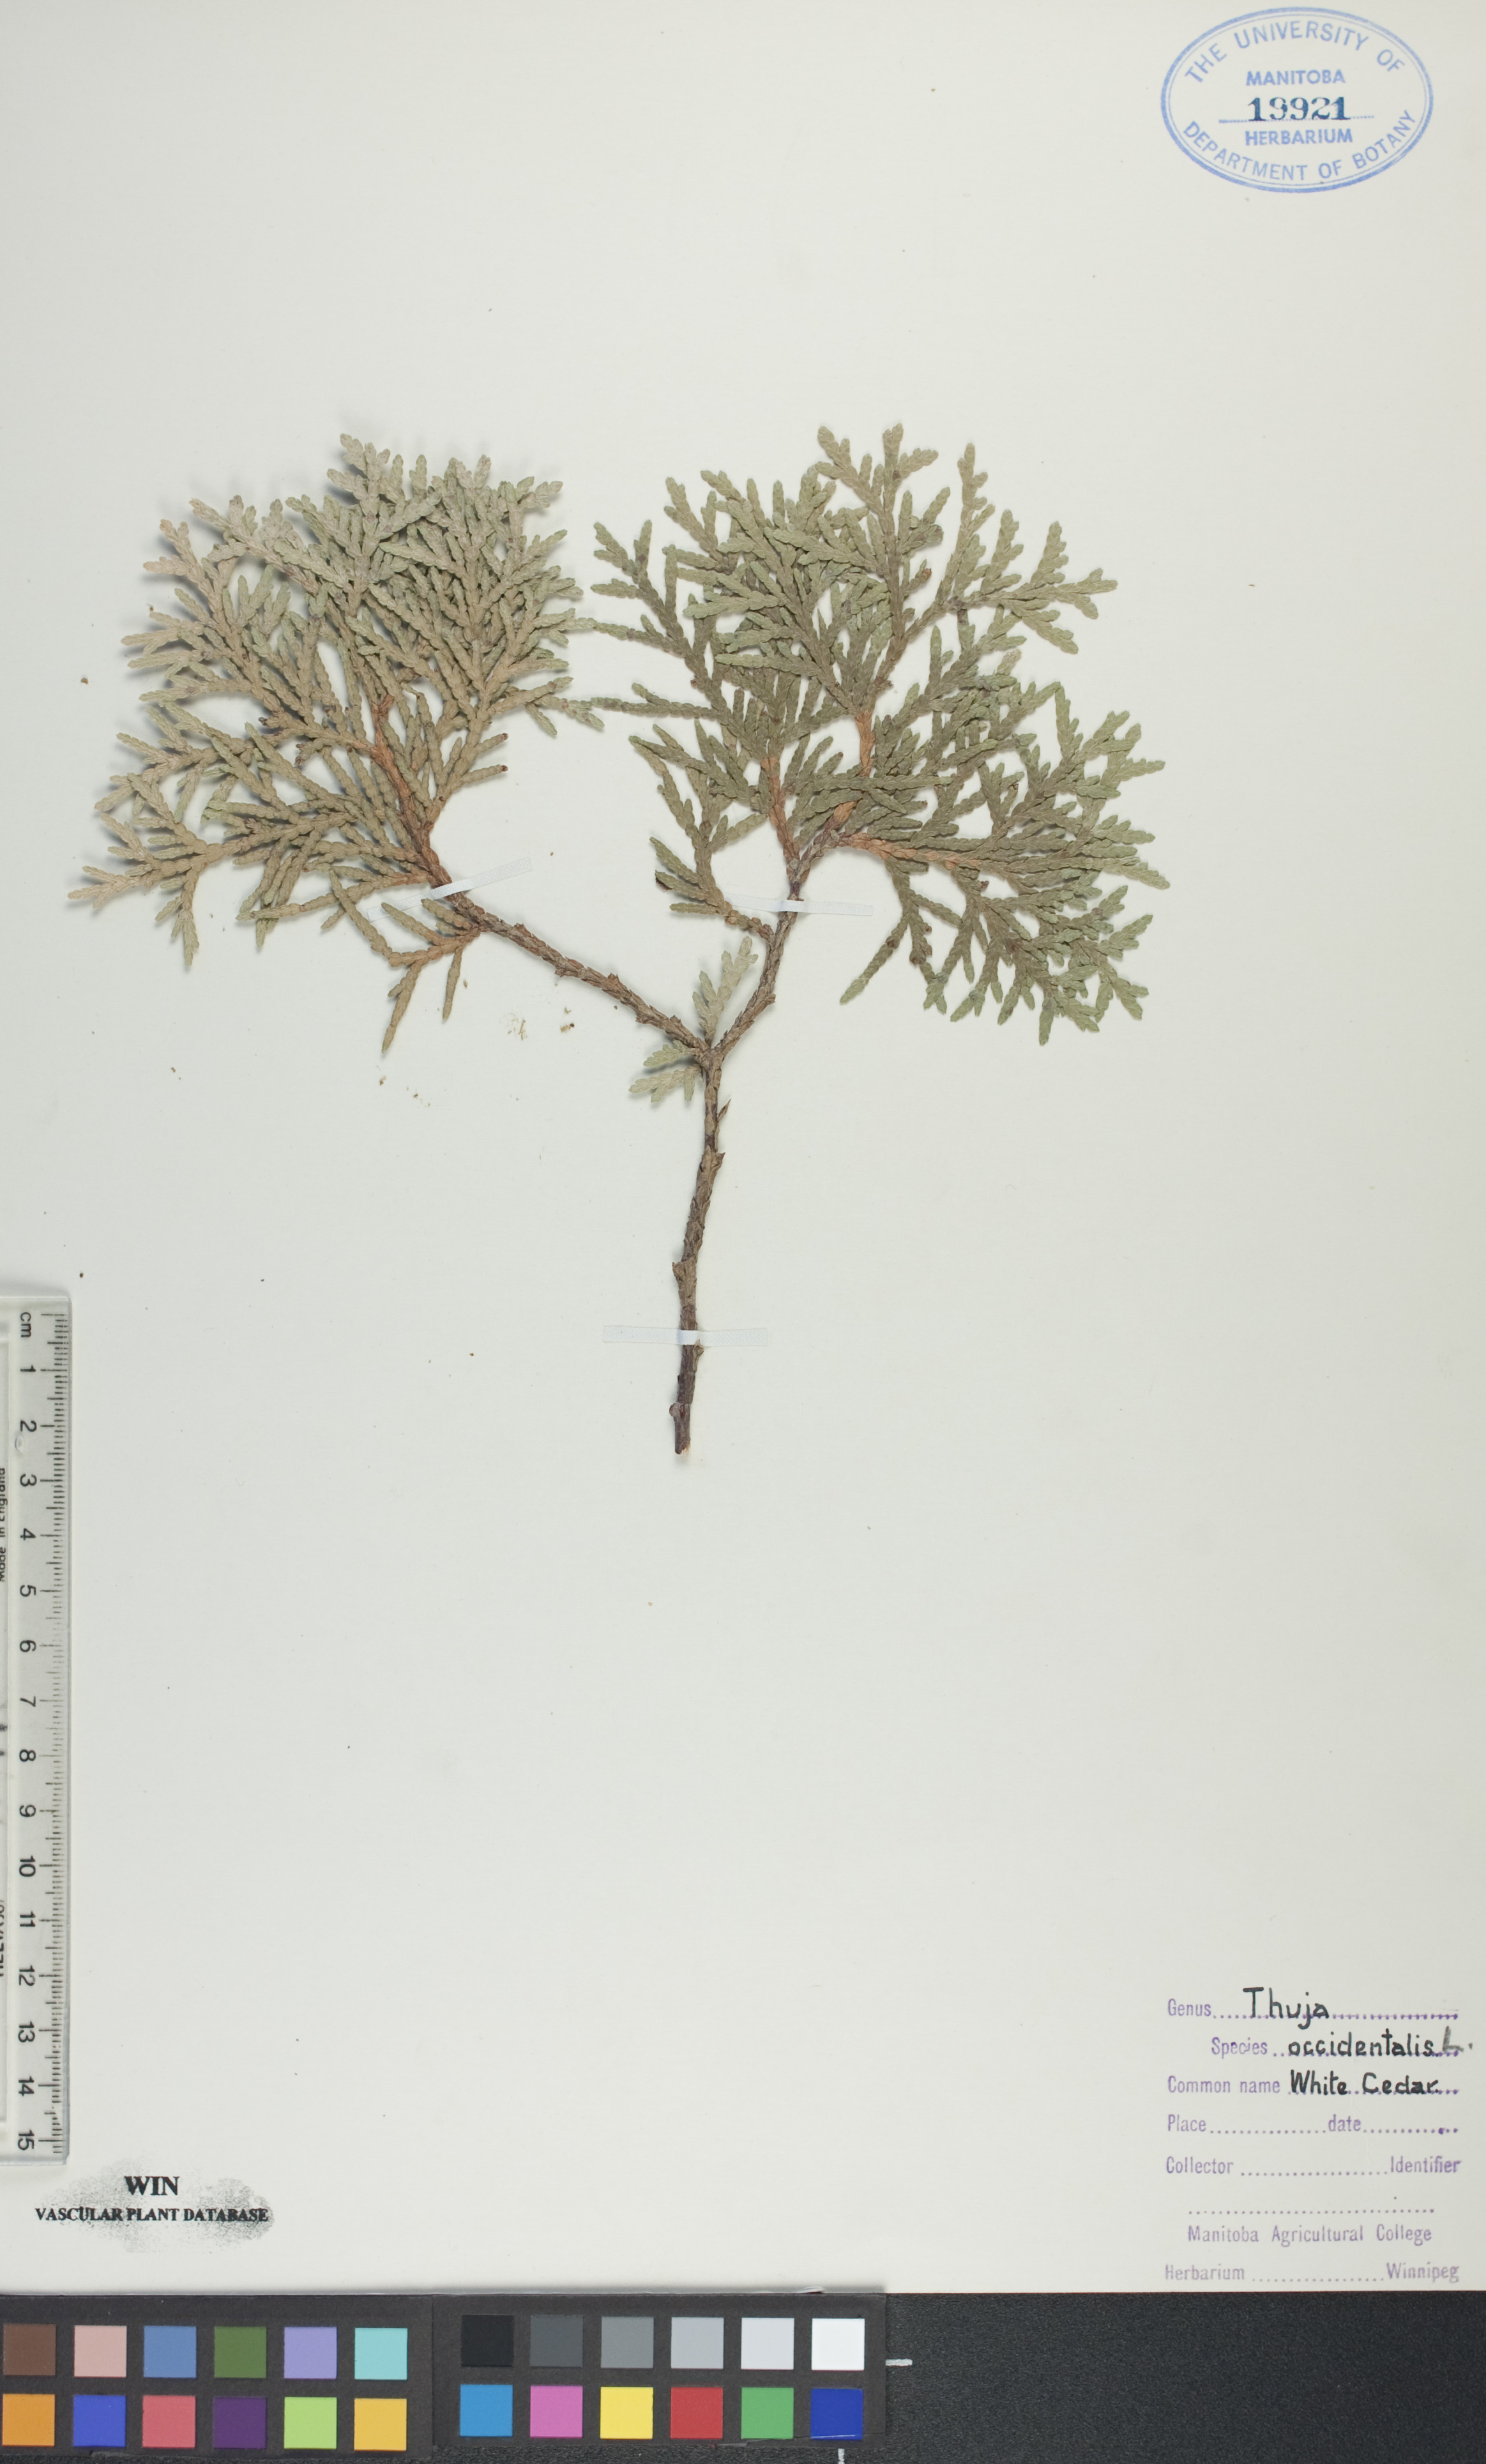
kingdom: Plantae
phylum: Tracheophyta
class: Pinopsida
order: Pinales
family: Cupressaceae
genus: Thuja
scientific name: Thuja occidentalis
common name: Northern white-cedar
